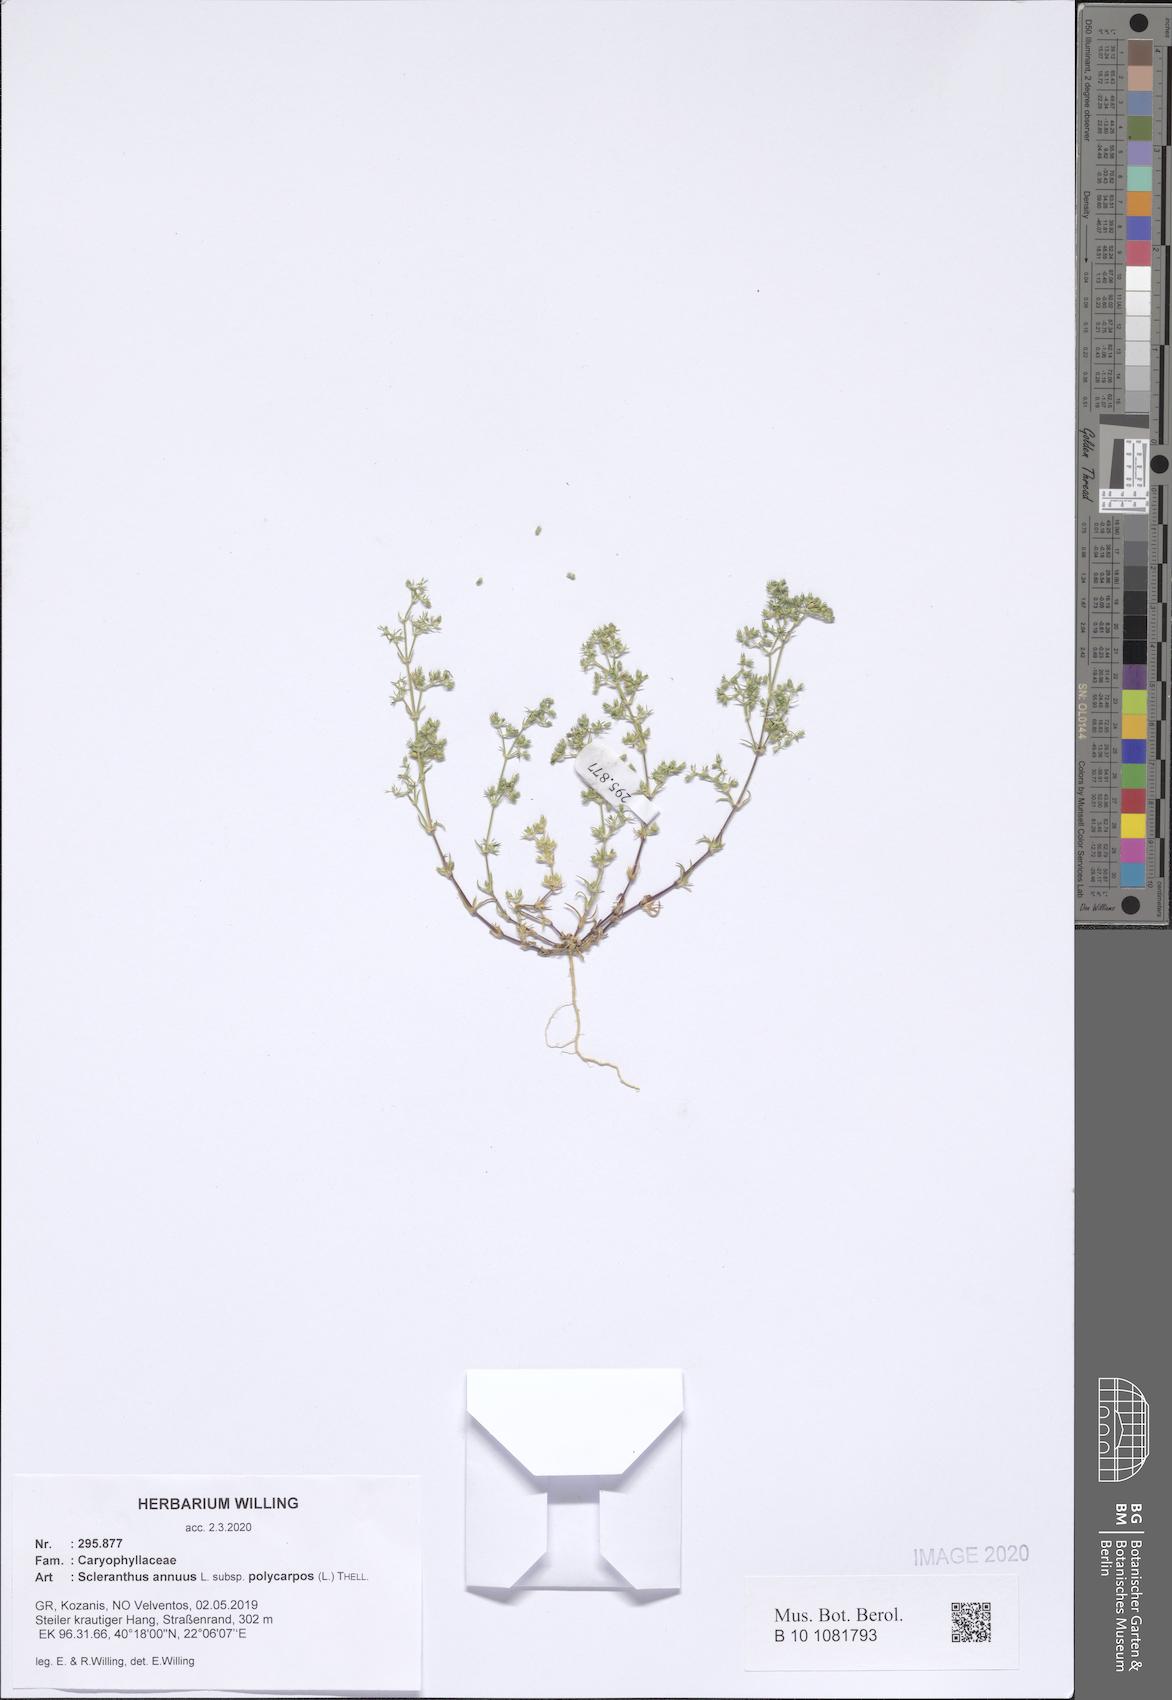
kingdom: Plantae
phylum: Tracheophyta
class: Magnoliopsida
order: Caryophyllales
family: Caryophyllaceae
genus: Scleranthus
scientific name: Scleranthus annuus
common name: Annual knawel
